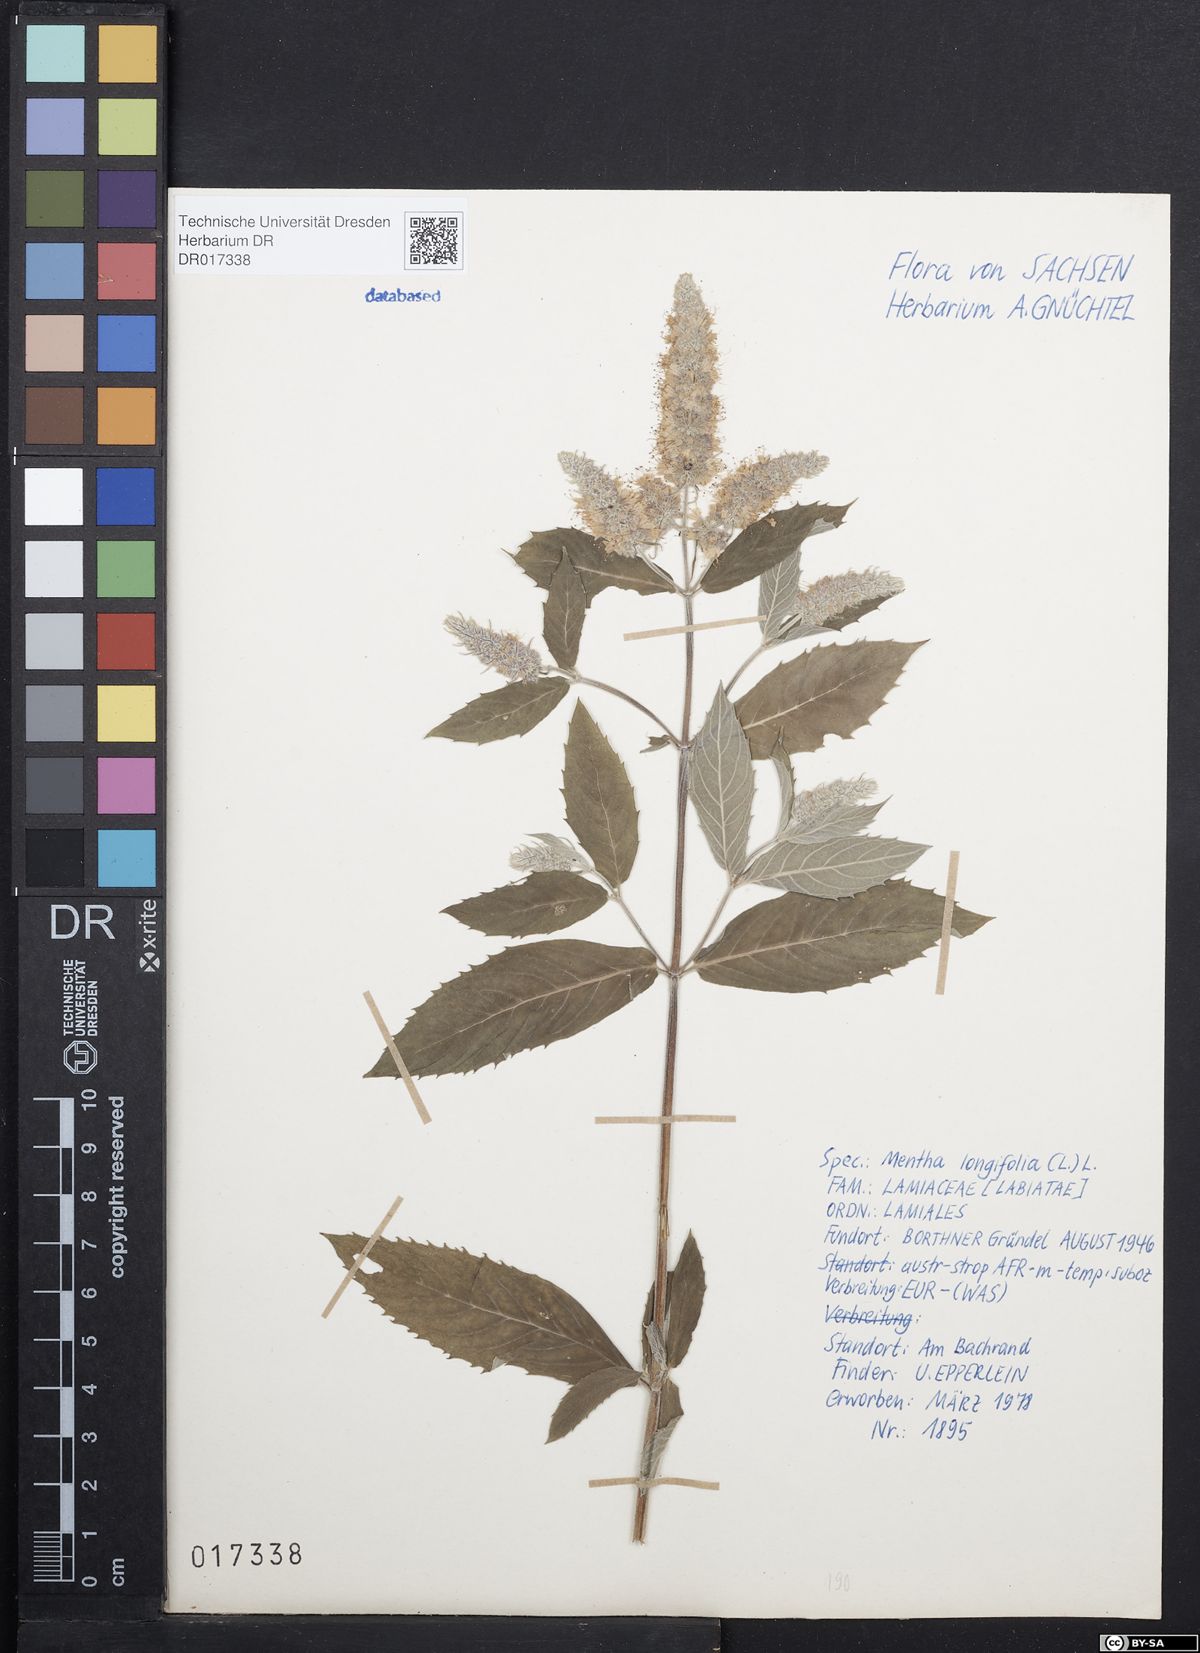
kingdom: Plantae
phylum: Tracheophyta
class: Magnoliopsida
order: Lamiales
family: Lamiaceae
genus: Mentha
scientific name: Mentha longifolia
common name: Horse mint
